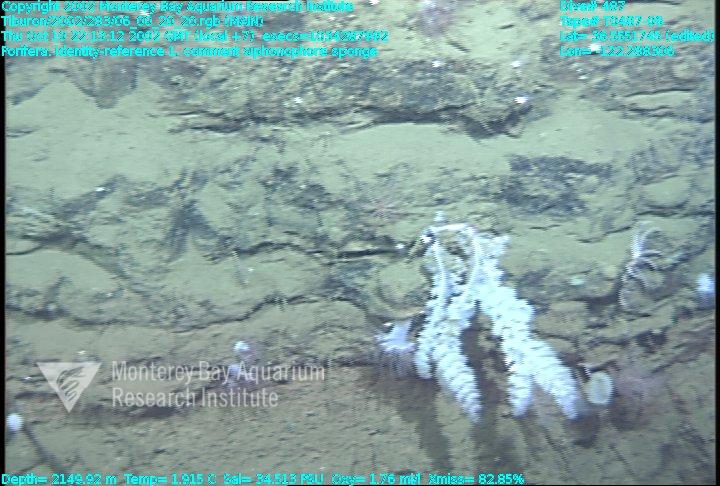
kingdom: Animalia
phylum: Porifera
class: Hexactinellida
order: Sceptrulophora
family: Farreidae
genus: Farrea
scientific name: Farrea truncata
